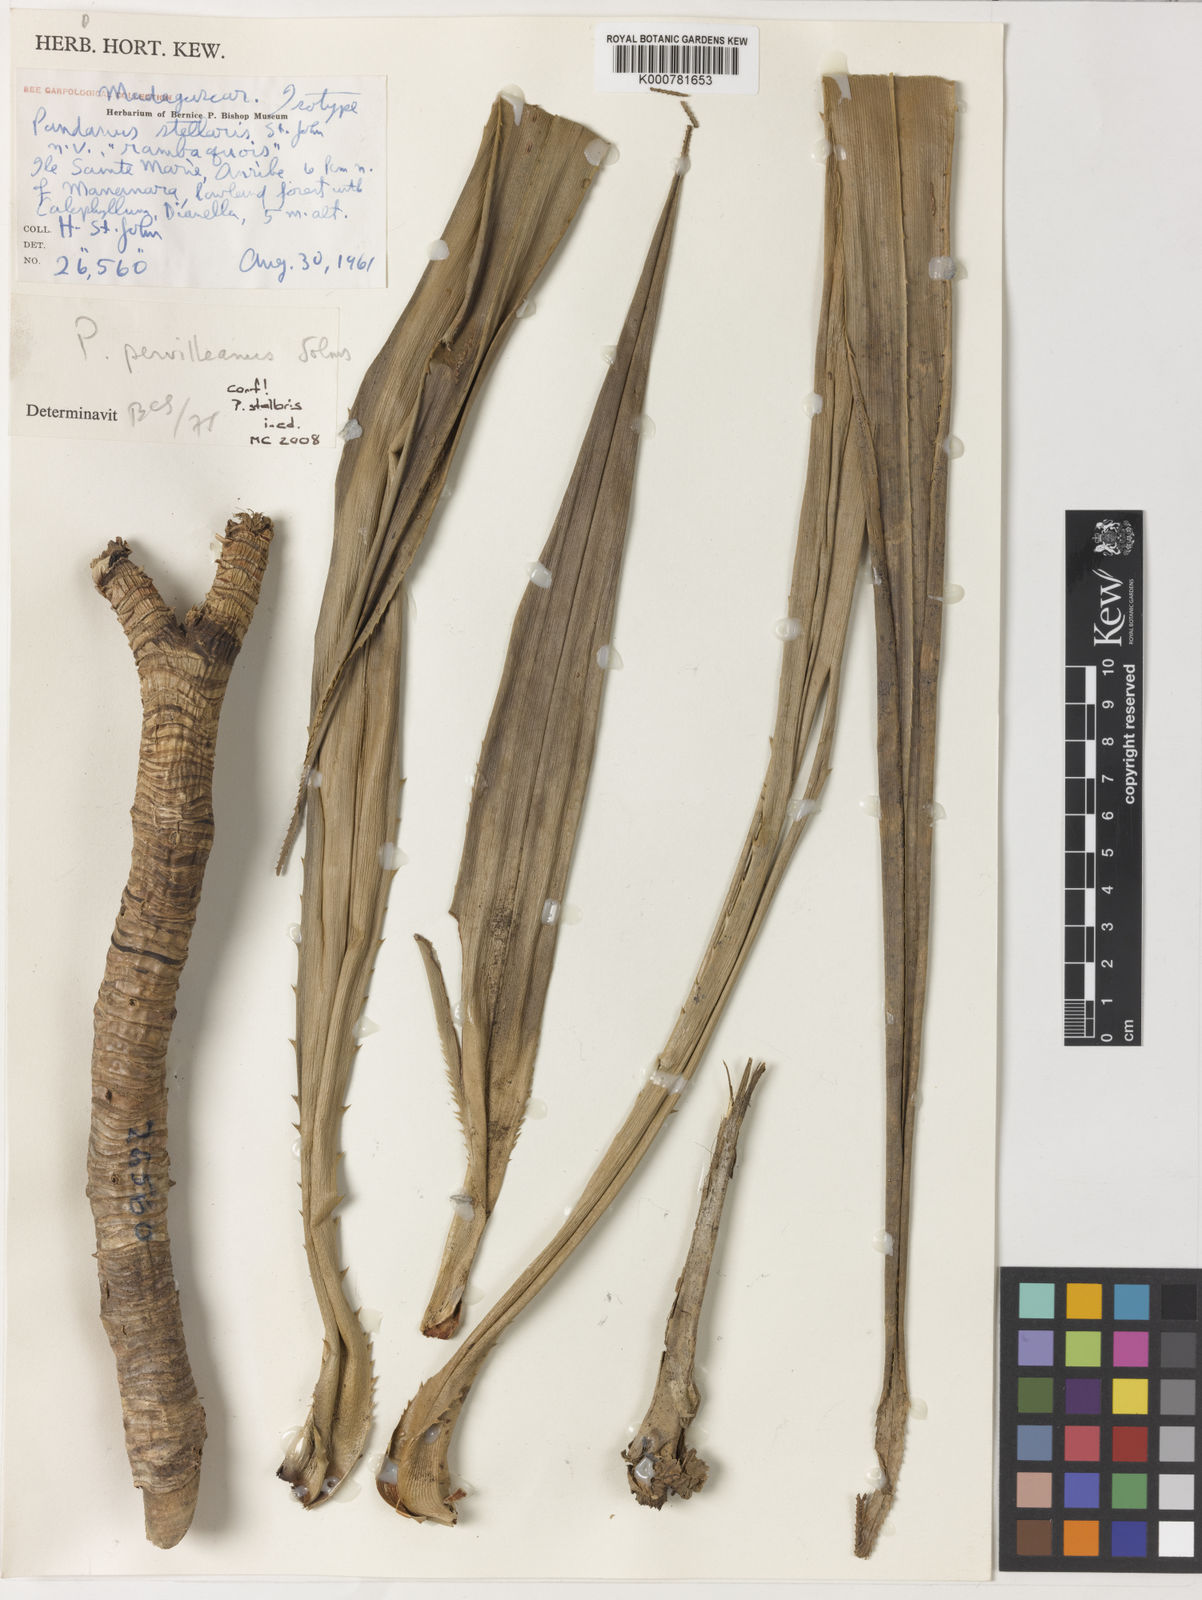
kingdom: Plantae
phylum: Tracheophyta
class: Liliopsida
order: Pandanales
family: Pandanaceae
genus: Pandanus
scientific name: Pandanus
